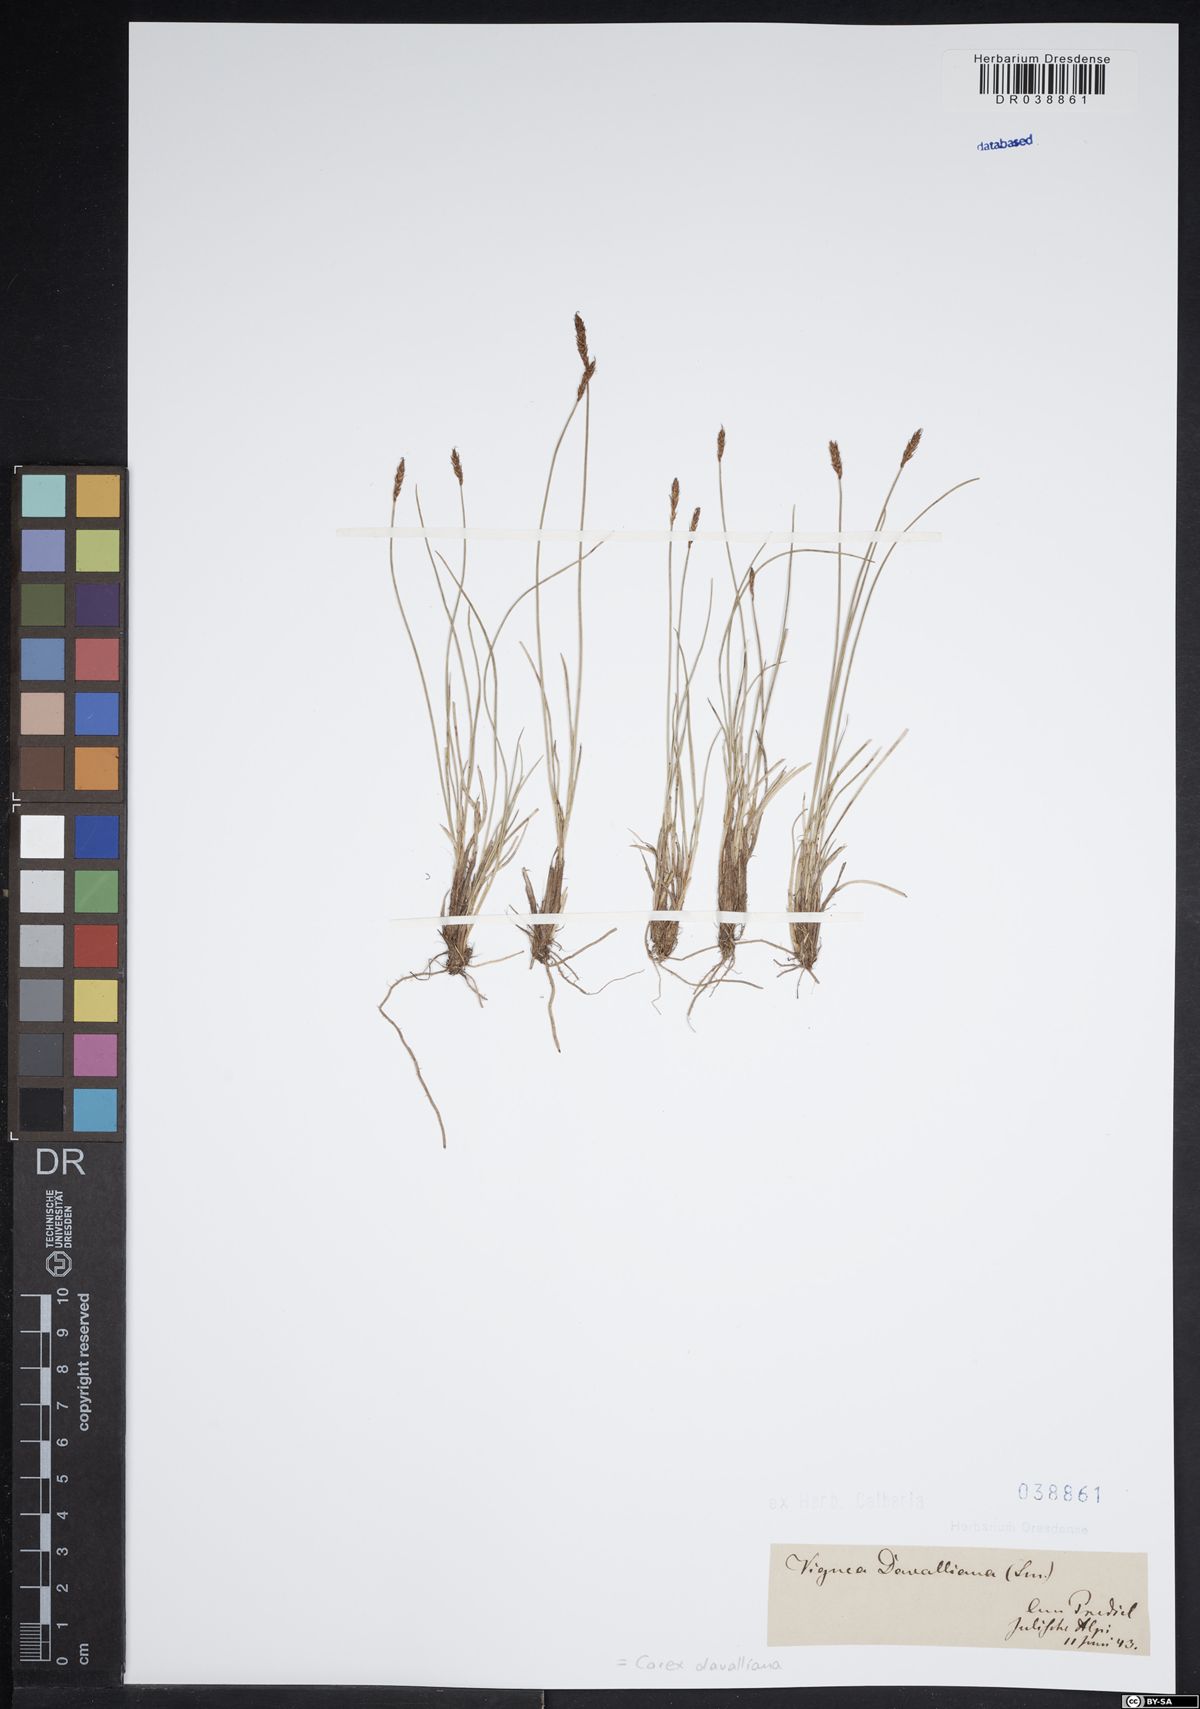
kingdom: Plantae
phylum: Tracheophyta
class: Liliopsida
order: Poales
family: Cyperaceae
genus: Carex
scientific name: Carex davalliana
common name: Davall's sedge
